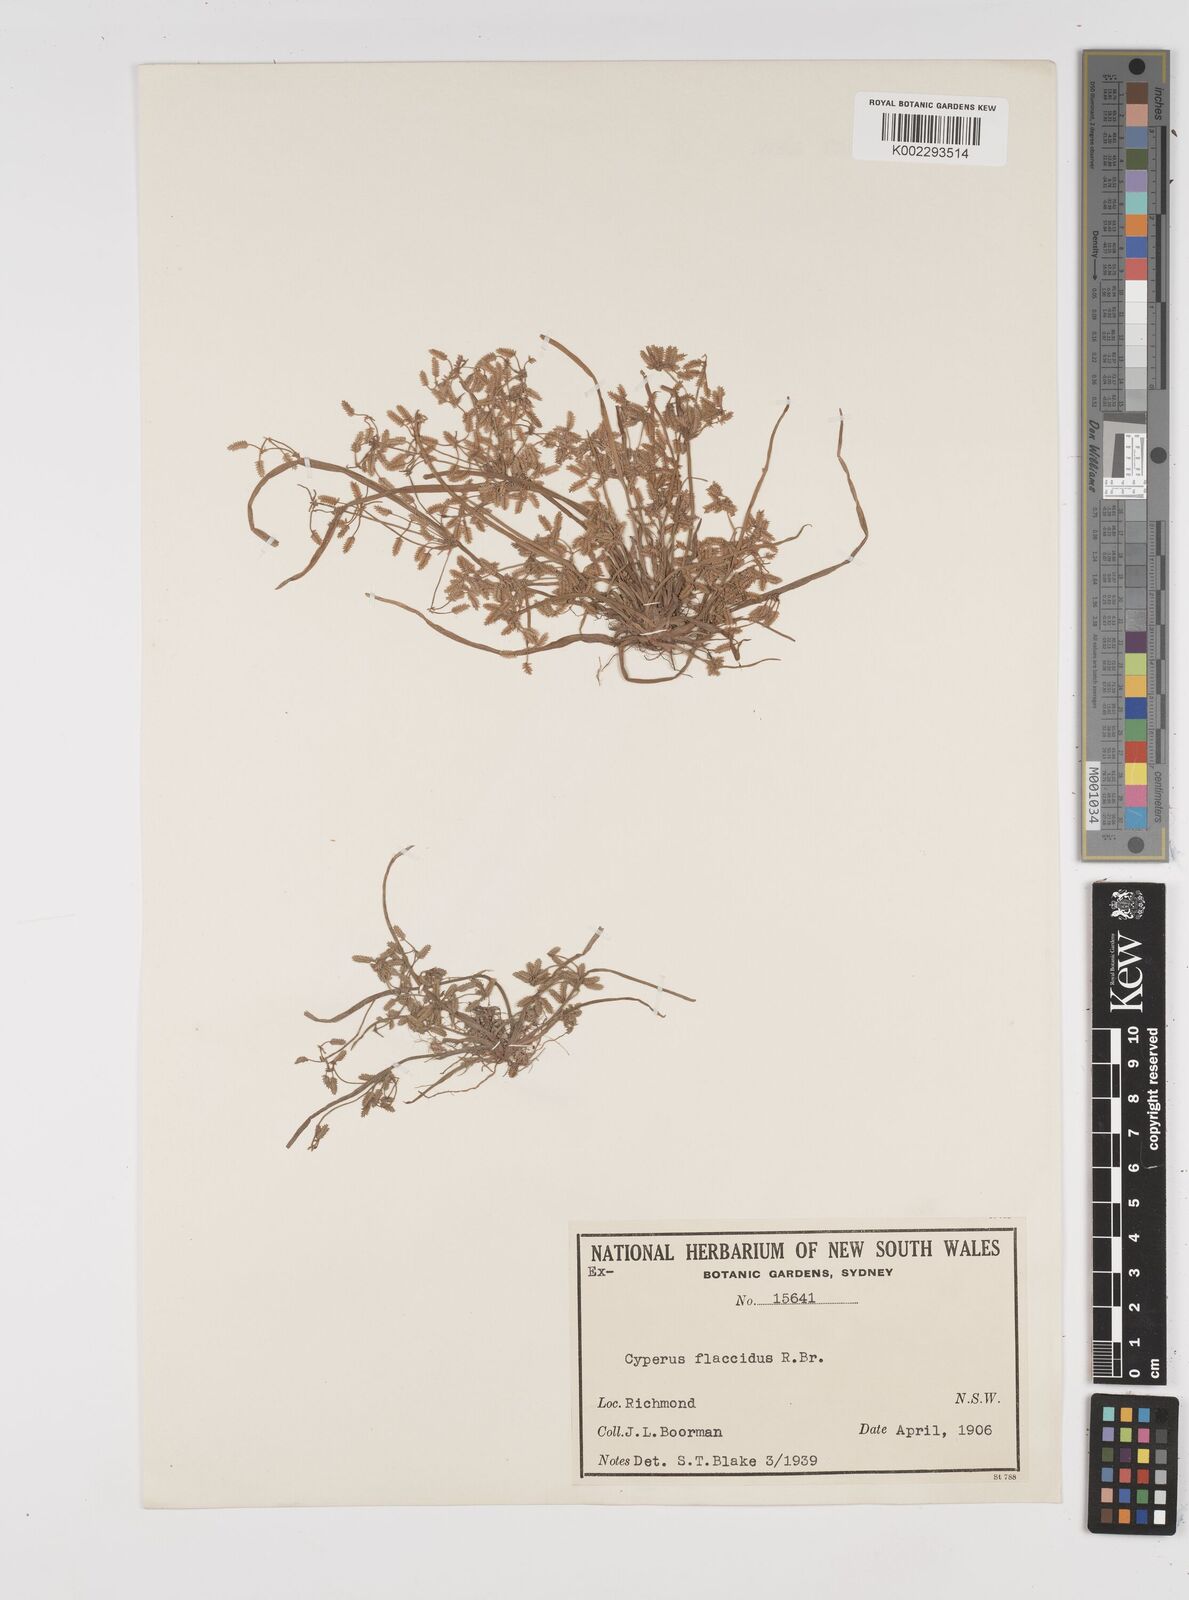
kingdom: Plantae
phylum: Tracheophyta
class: Liliopsida
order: Poales
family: Cyperaceae
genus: Cyperus
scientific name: Cyperus flaccidus
